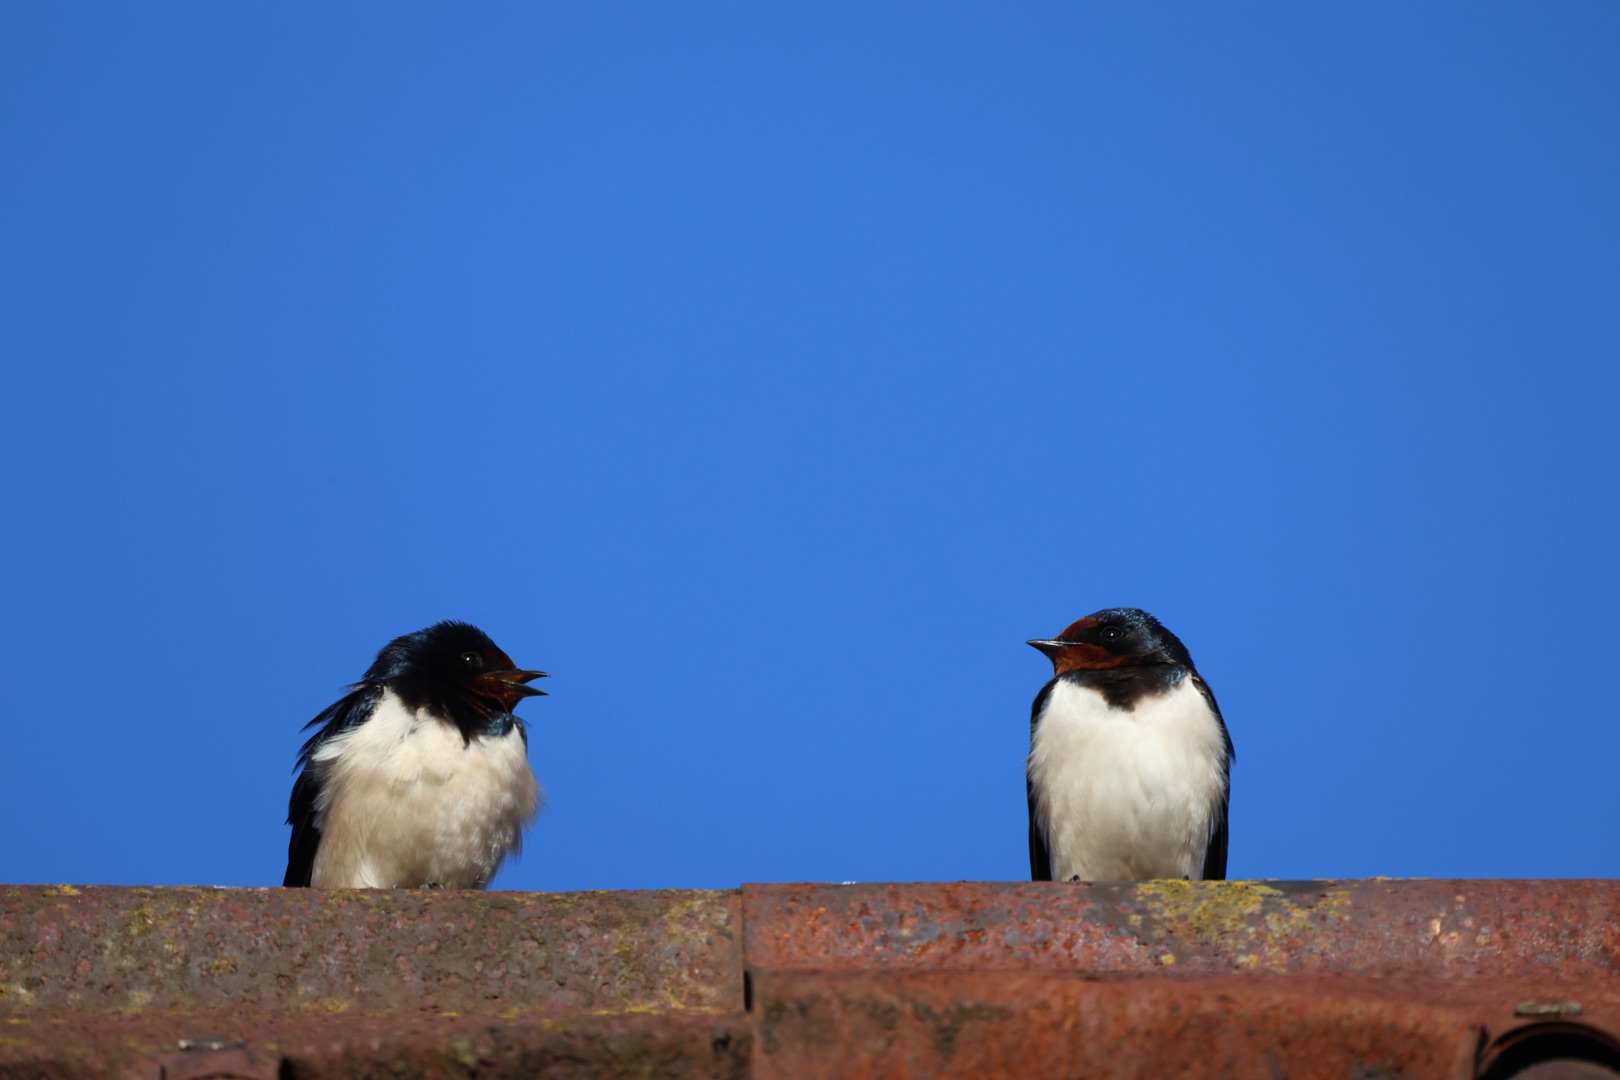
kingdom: Animalia
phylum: Chordata
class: Aves
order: Passeriformes
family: Hirundinidae
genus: Hirundo
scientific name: Hirundo rustica
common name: Landsvale
